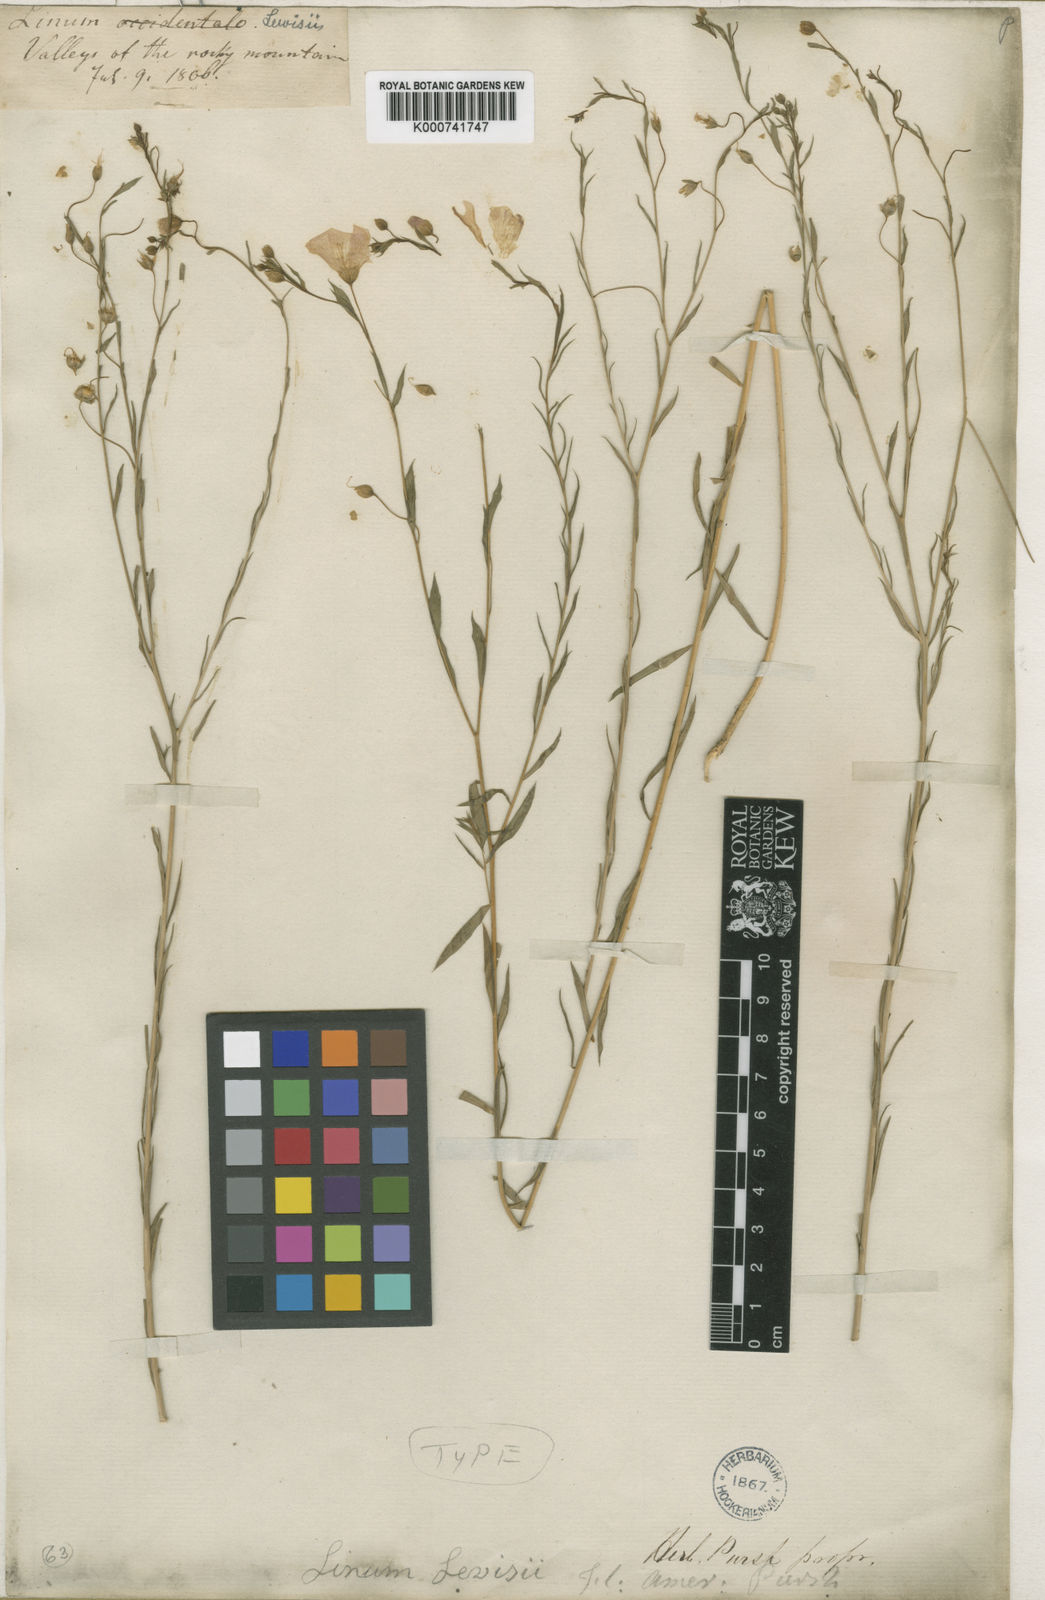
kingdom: Plantae
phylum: Tracheophyta
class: Magnoliopsida
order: Malpighiales
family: Linaceae
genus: Linum
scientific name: Linum lewisii
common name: Prairie flax
